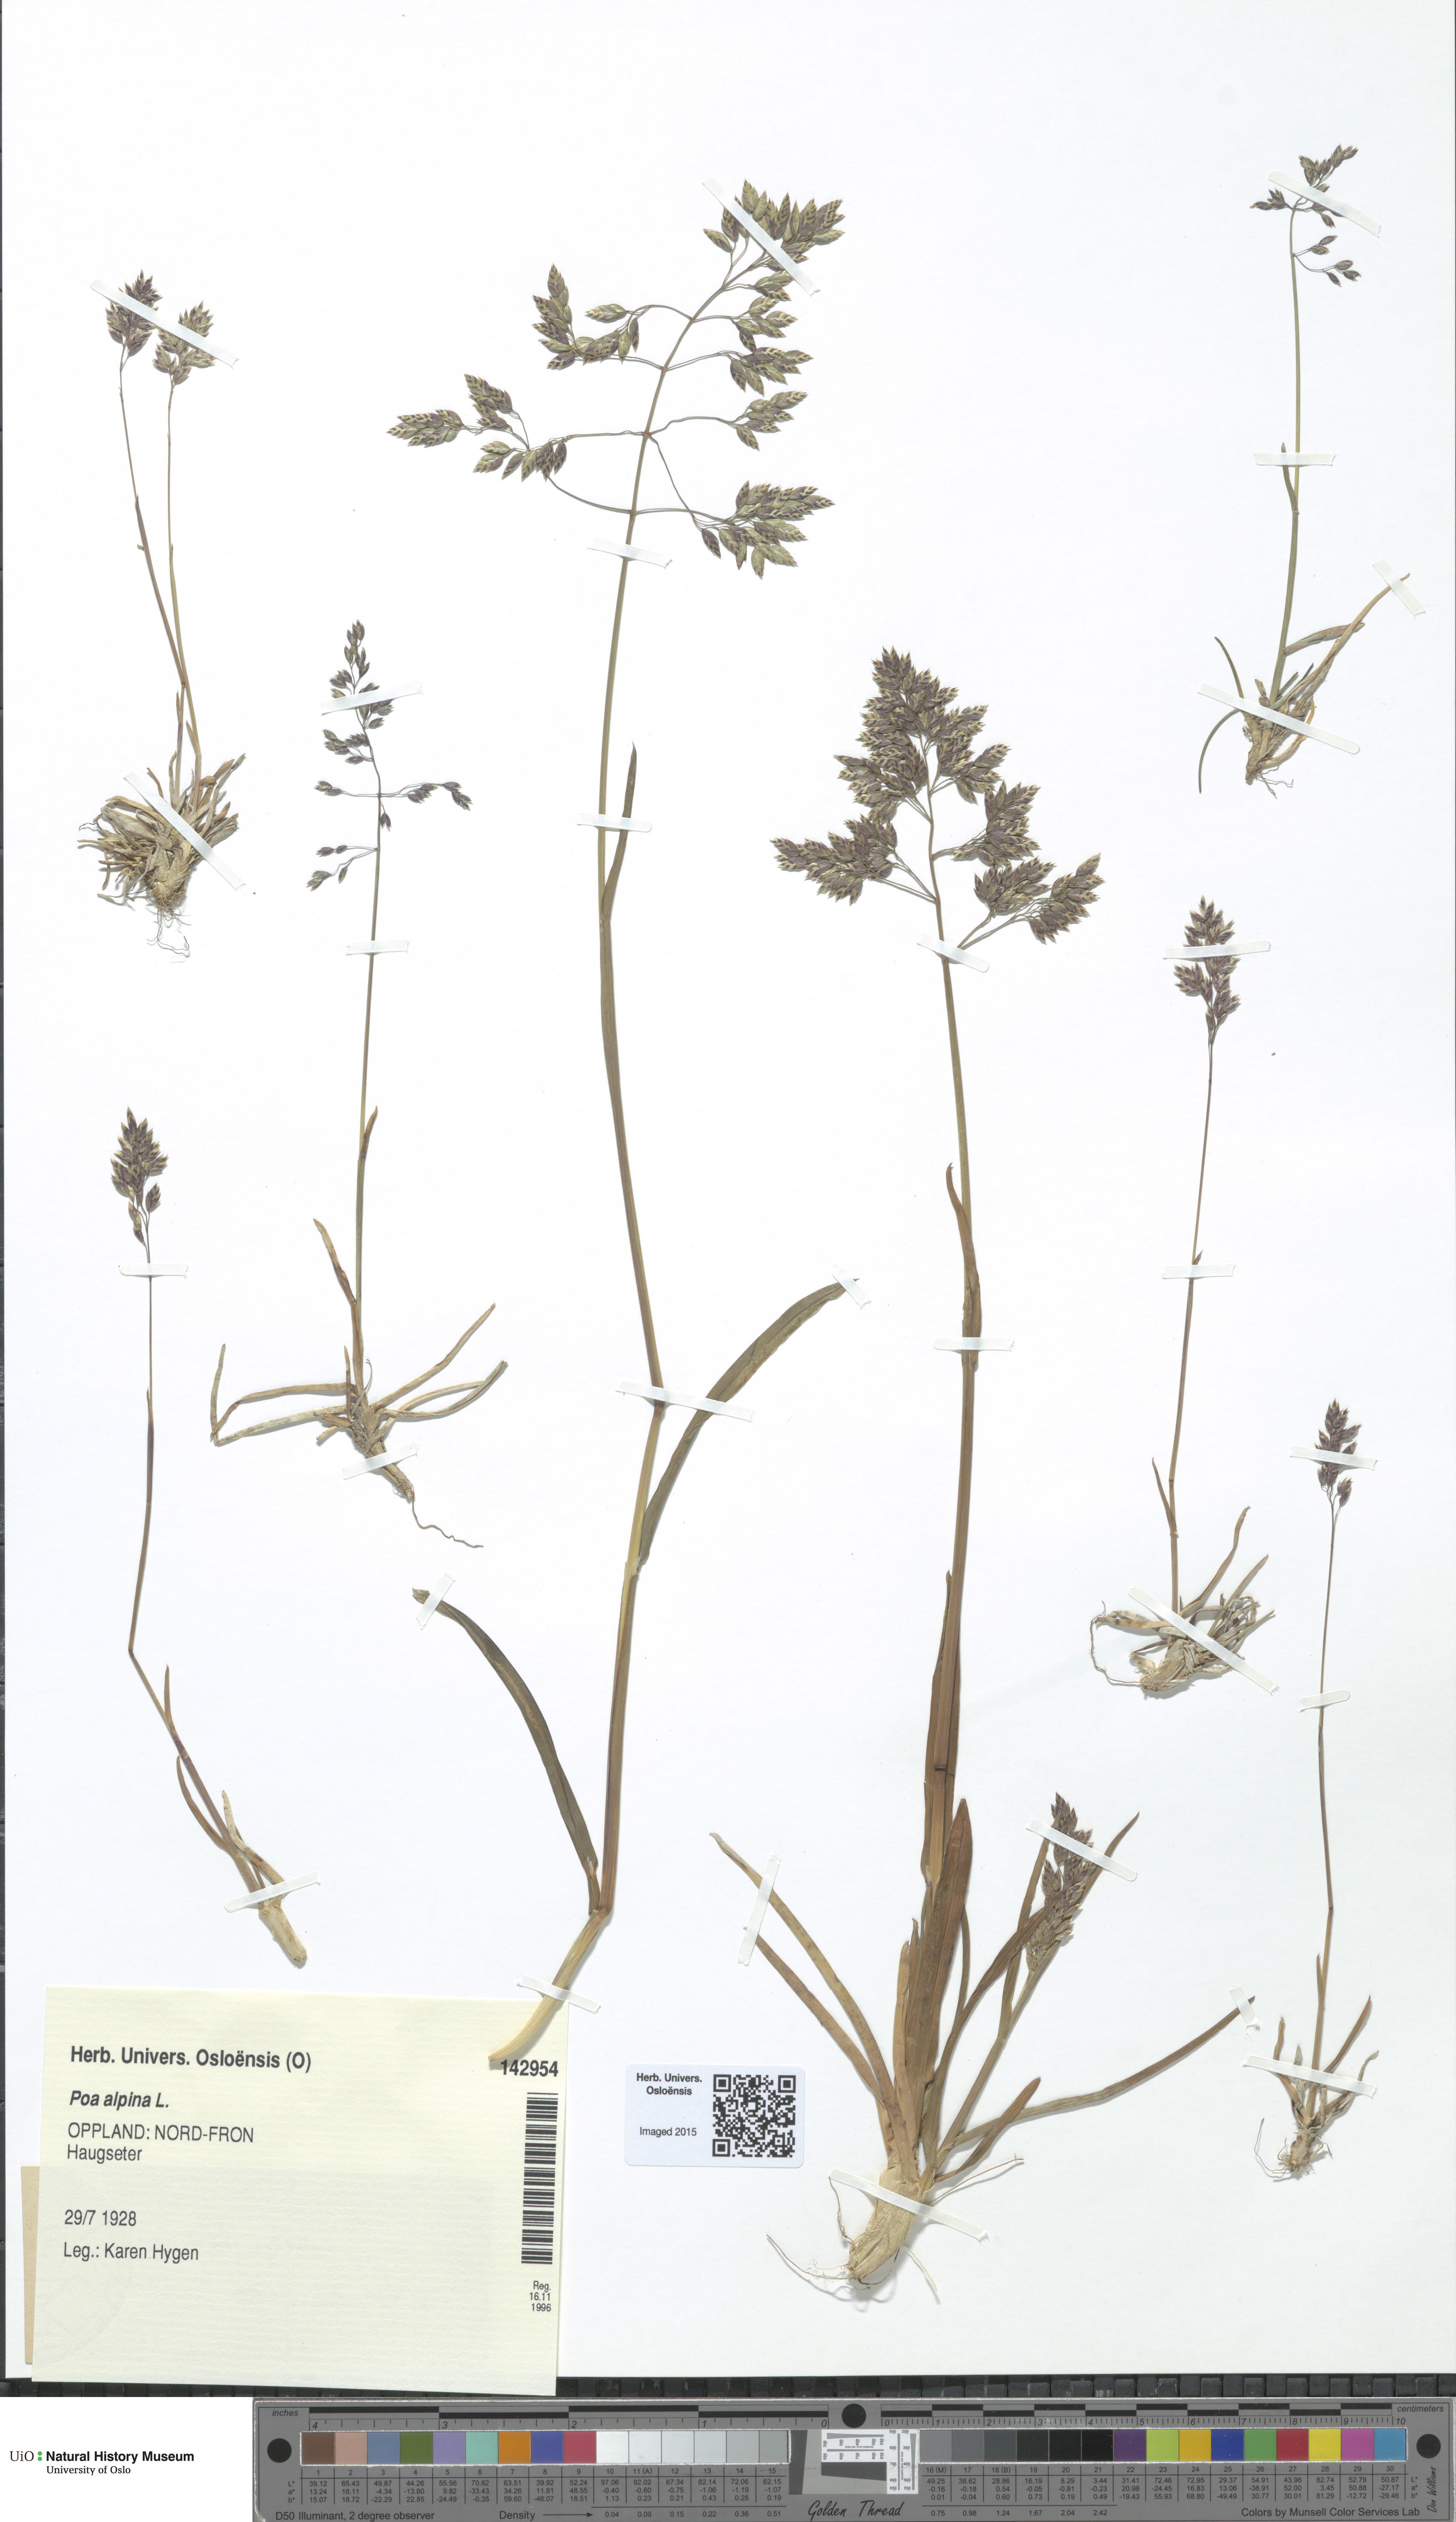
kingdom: Plantae
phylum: Tracheophyta
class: Liliopsida
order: Poales
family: Poaceae
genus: Poa
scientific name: Poa alpina
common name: Alpine bluegrass
